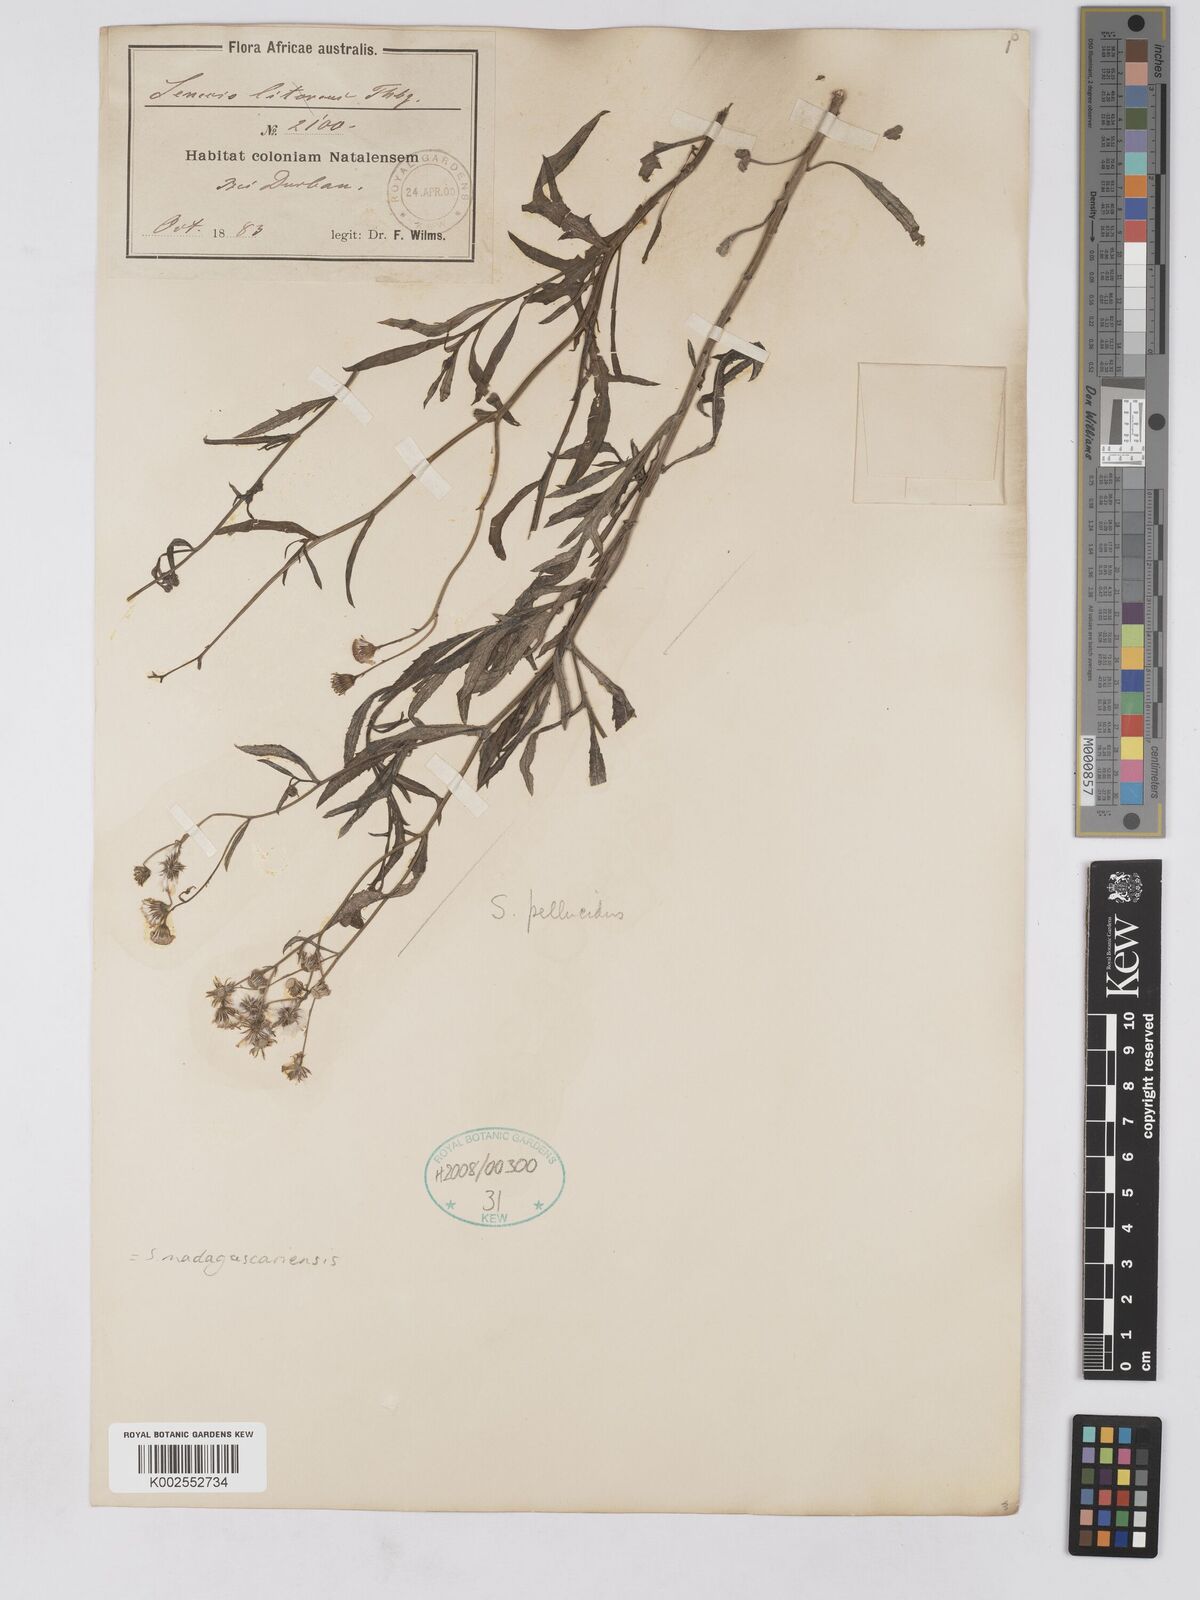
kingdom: Plantae
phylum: Tracheophyta
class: Magnoliopsida
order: Asterales
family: Asteraceae
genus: Senecio
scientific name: Senecio madagascariensis
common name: Madagascar ragwort
